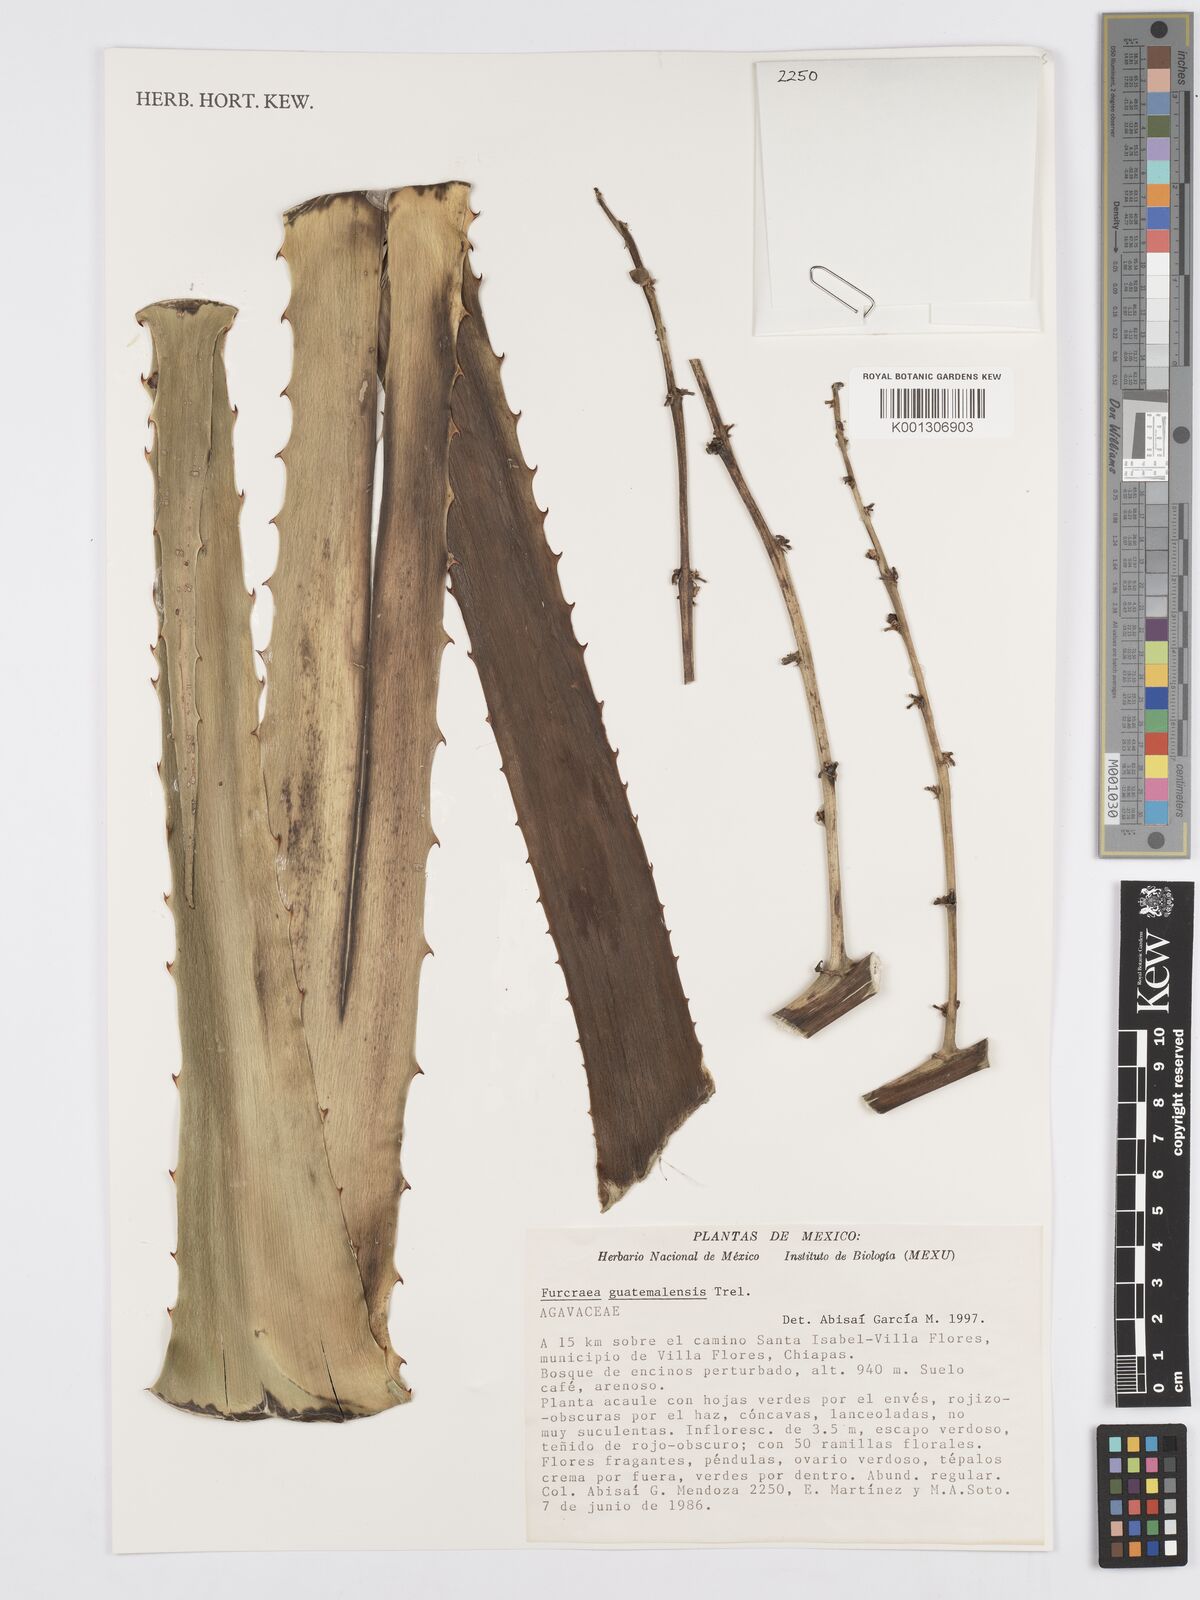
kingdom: Plantae
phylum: Tracheophyta
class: Liliopsida
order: Asparagales
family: Asparagaceae
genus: Furcraea
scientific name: Furcraea guatemalensis
